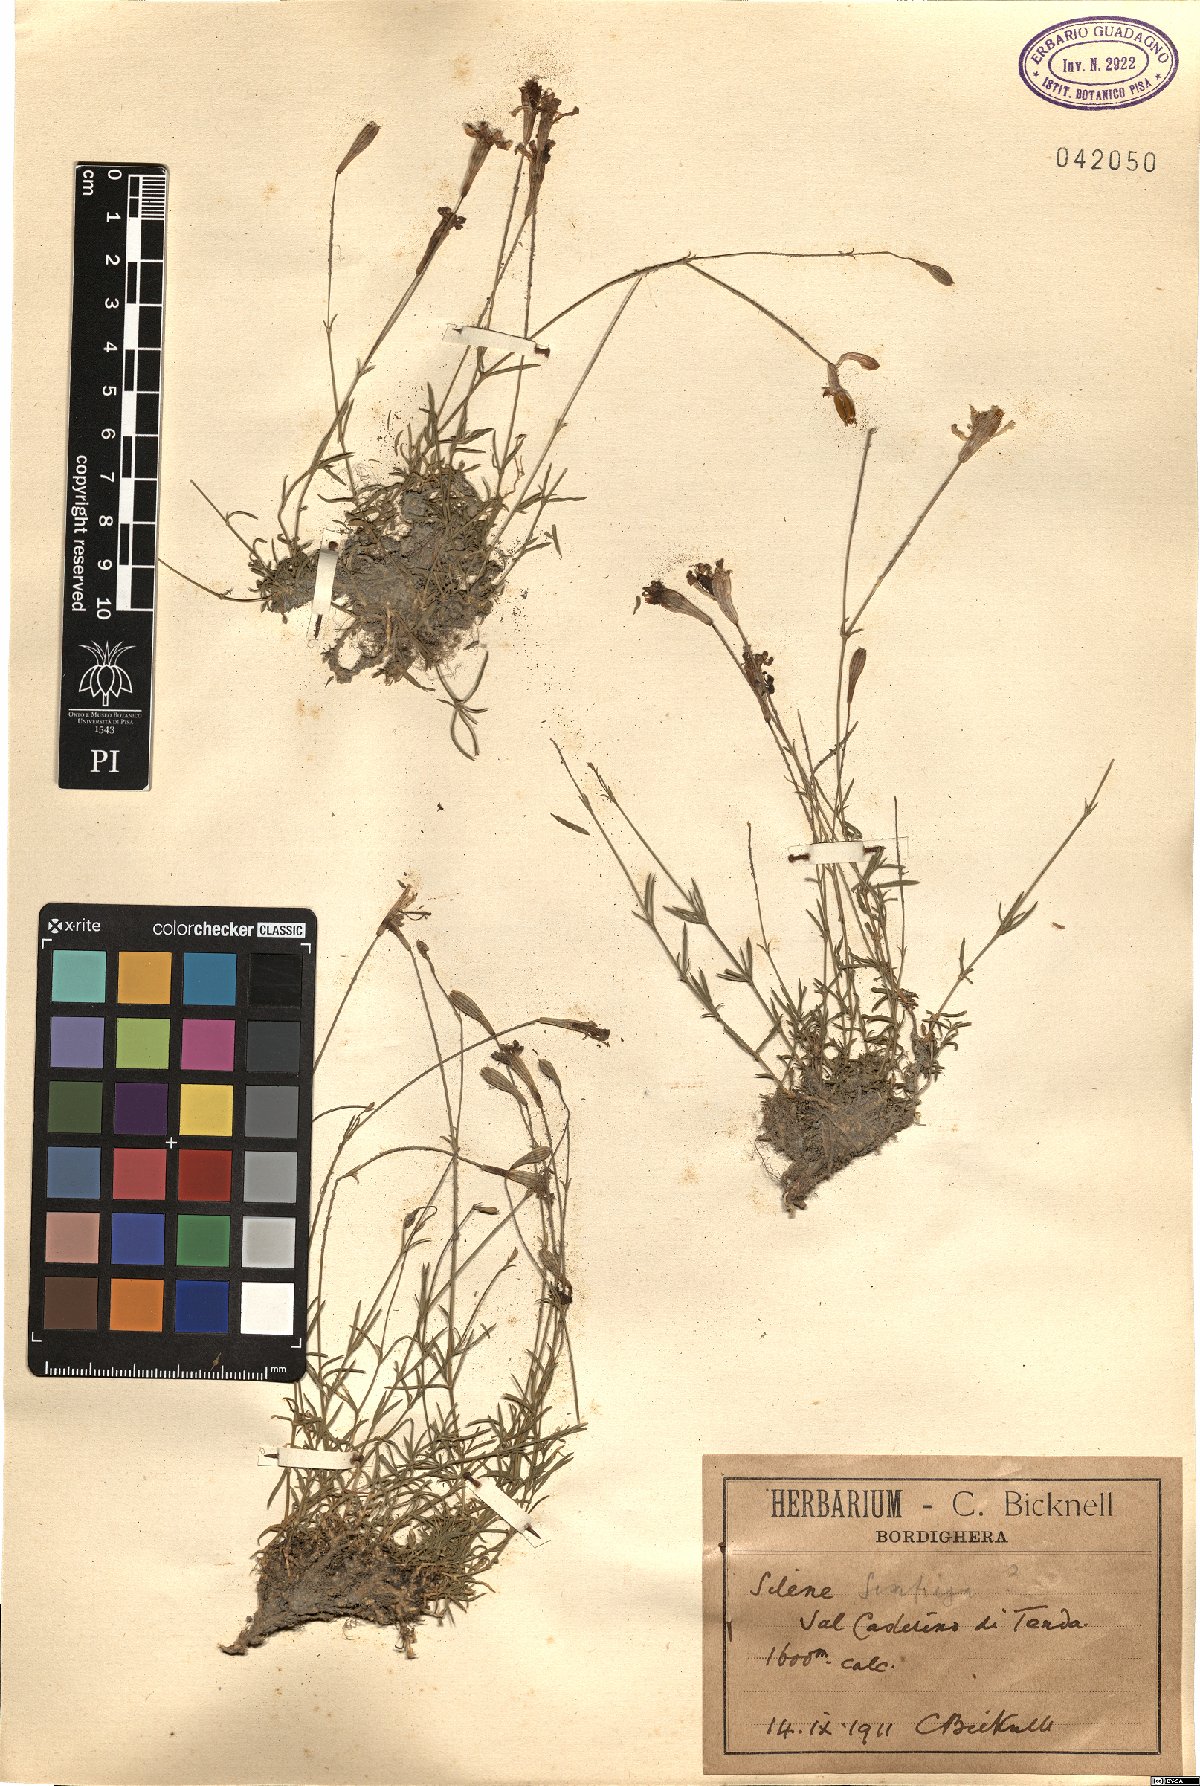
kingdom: Plantae
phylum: Tracheophyta
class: Magnoliopsida
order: Caryophyllales
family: Caryophyllaceae
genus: Silene
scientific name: Silene saxifraga
